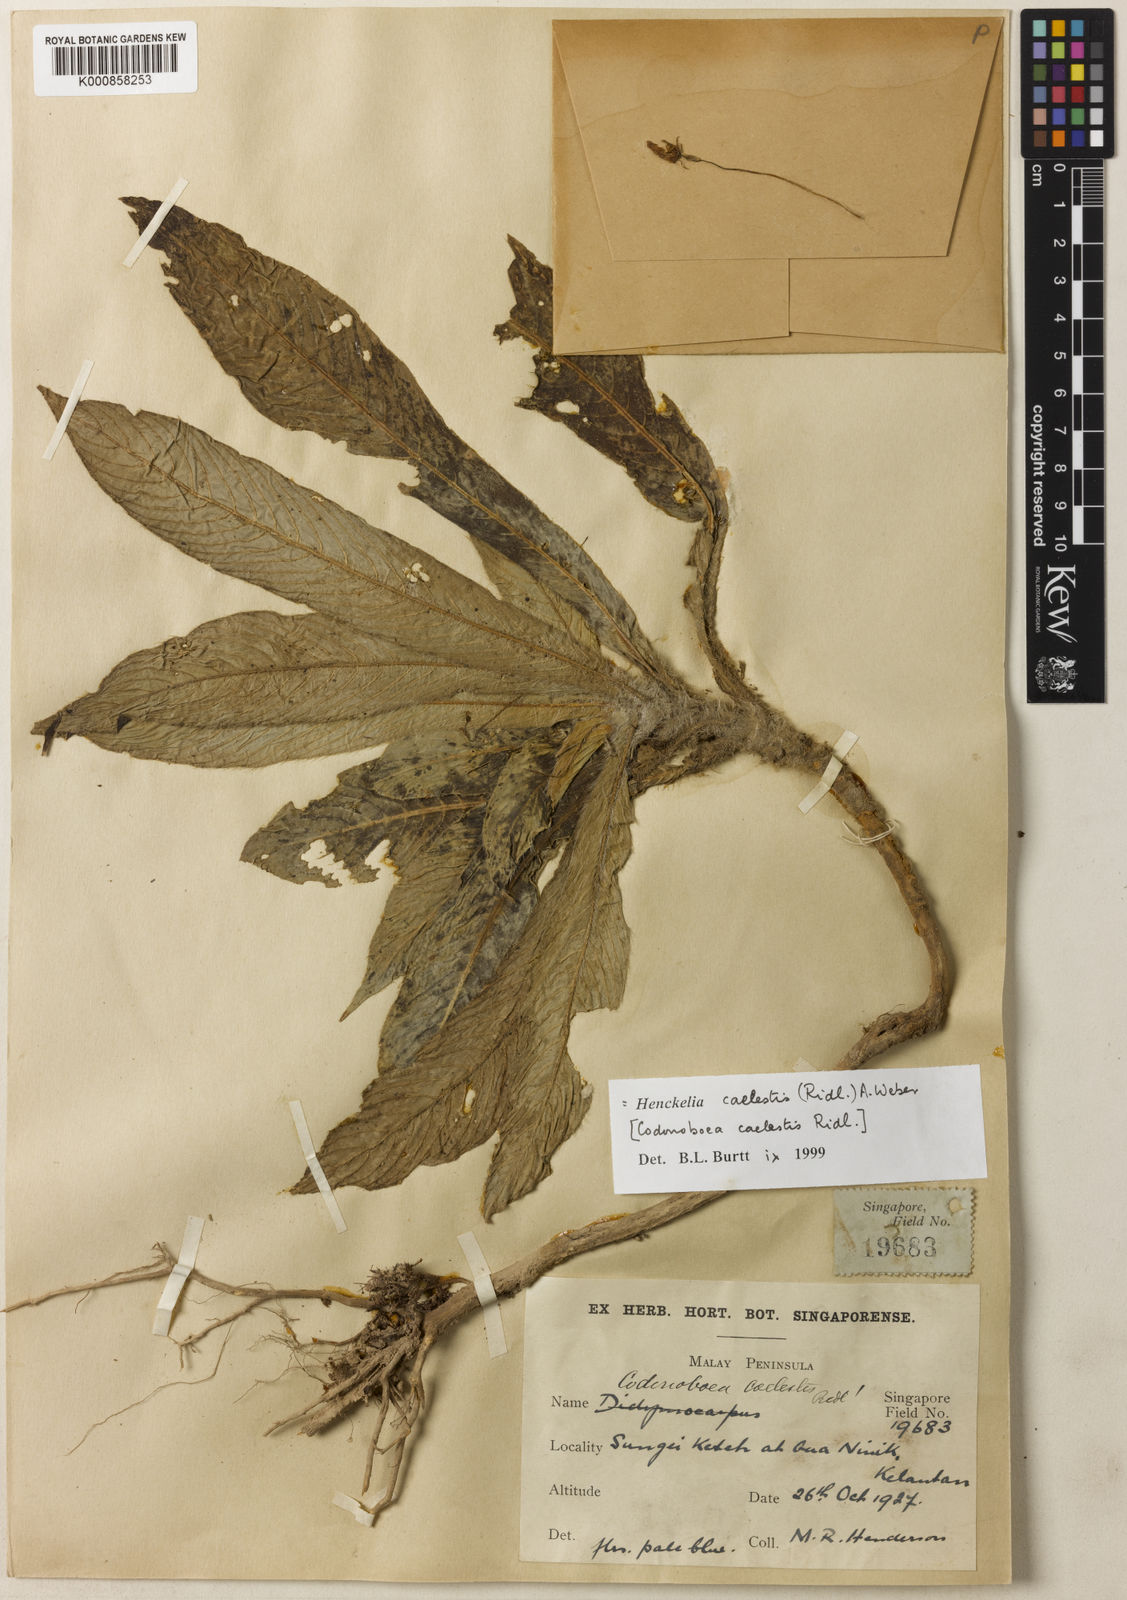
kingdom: Plantae
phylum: Tracheophyta
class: Magnoliopsida
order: Lamiales
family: Gesneriaceae
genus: Codonoboea
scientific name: Codonoboea caelestis
